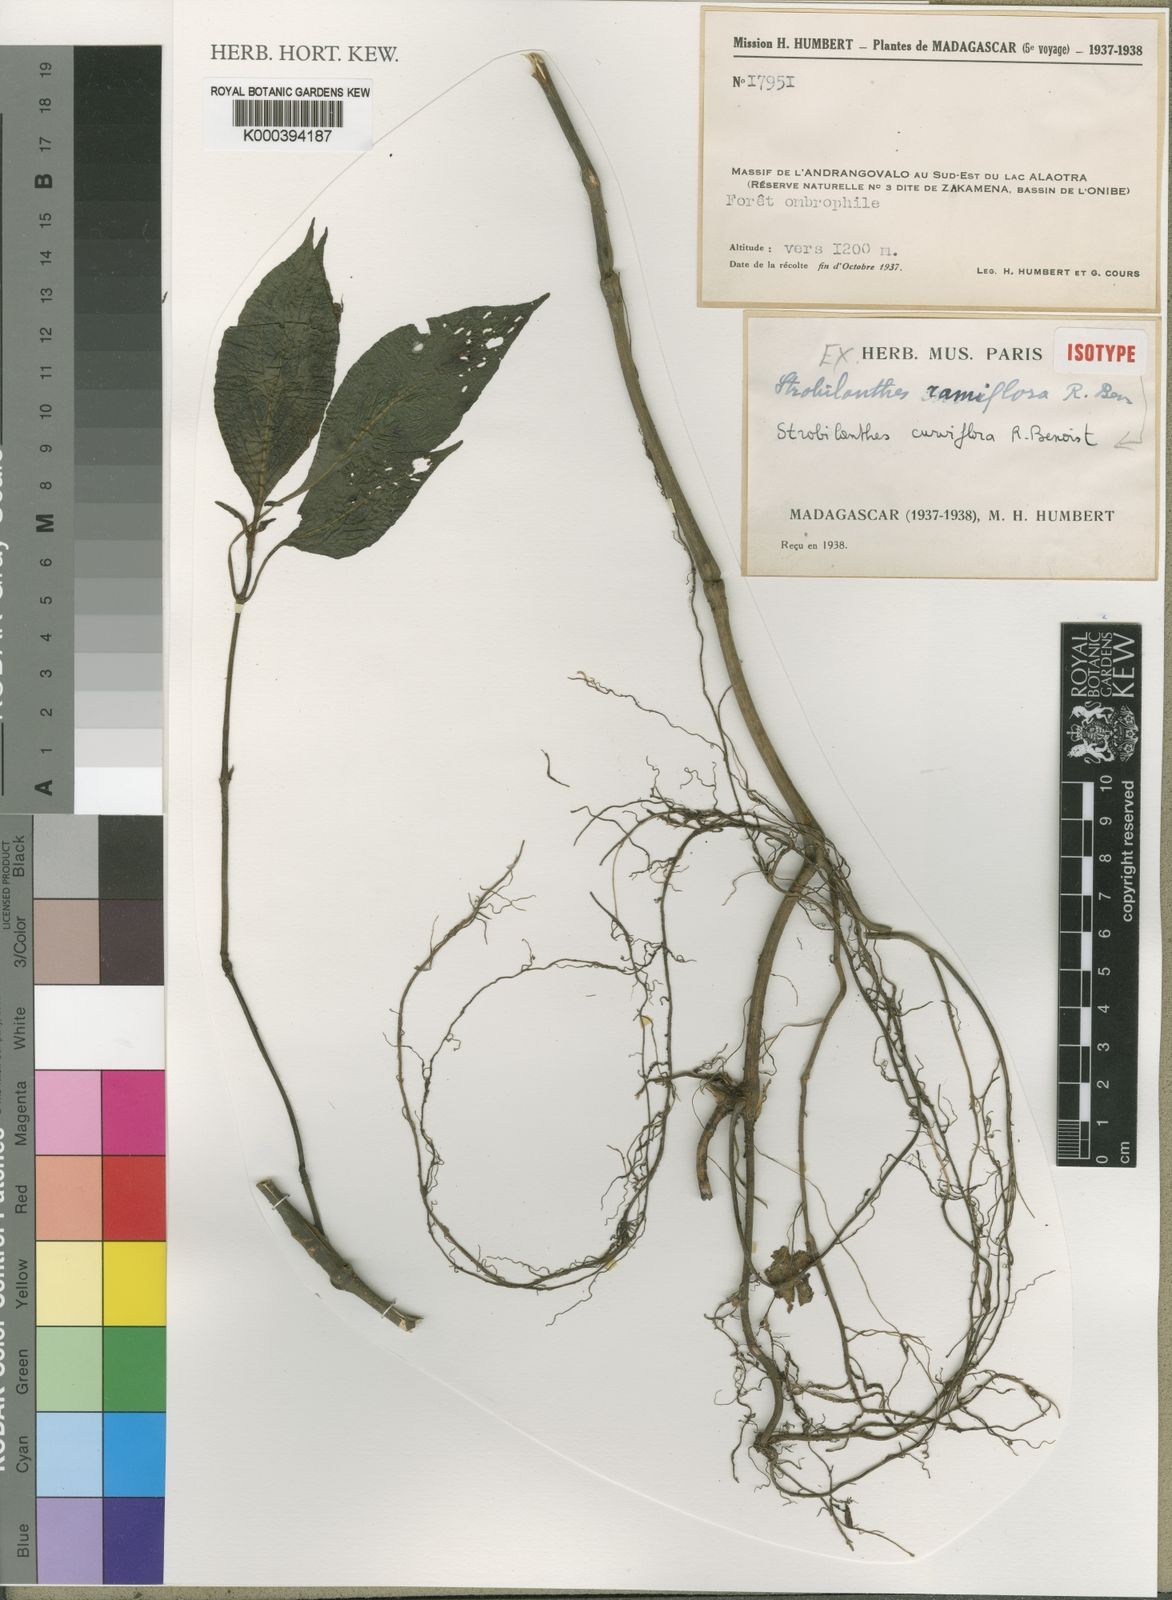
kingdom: Plantae
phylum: Tracheophyta
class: Magnoliopsida
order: Lamiales
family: Acanthaceae
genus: Acanthopale
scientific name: Acanthopale ramiflora
